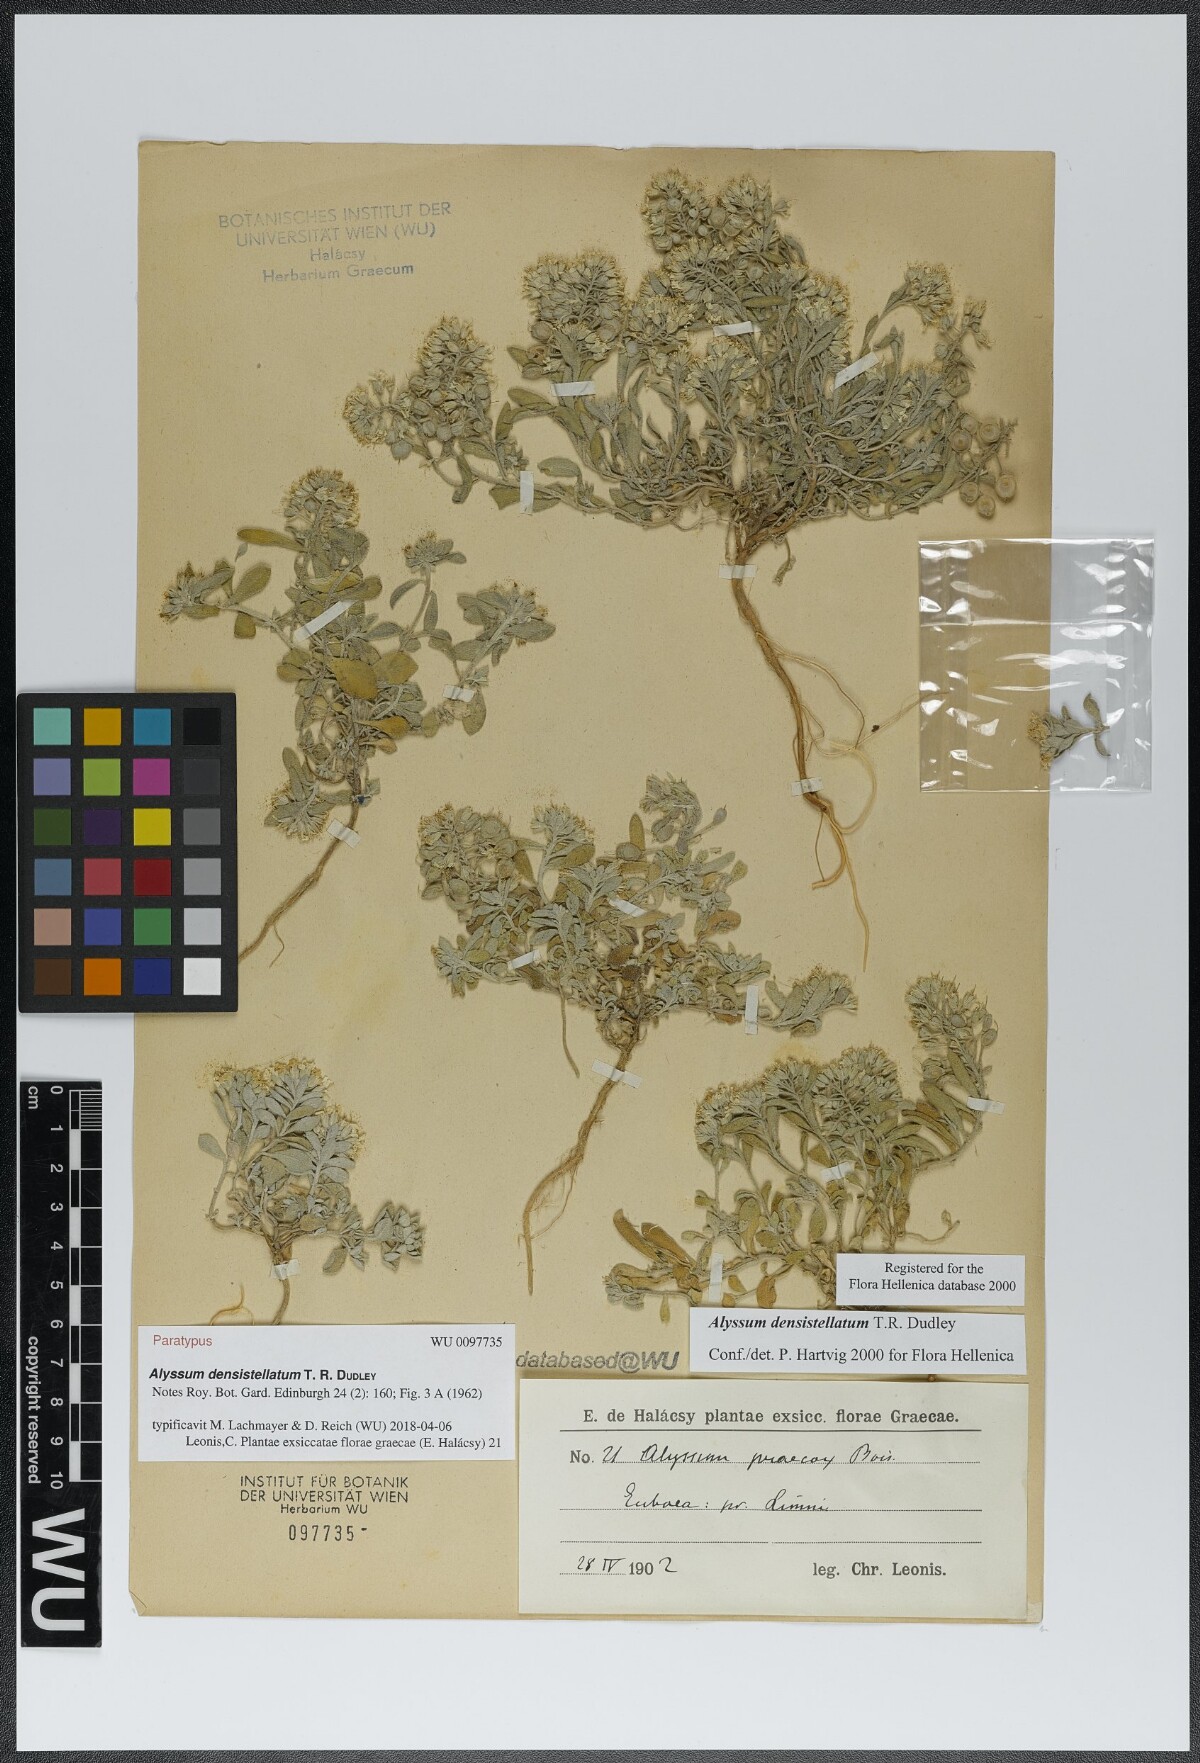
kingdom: Plantae
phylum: Tracheophyta
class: Magnoliopsida
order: Brassicales
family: Brassicaceae
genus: Alyssum
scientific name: Alyssum densistellatum
